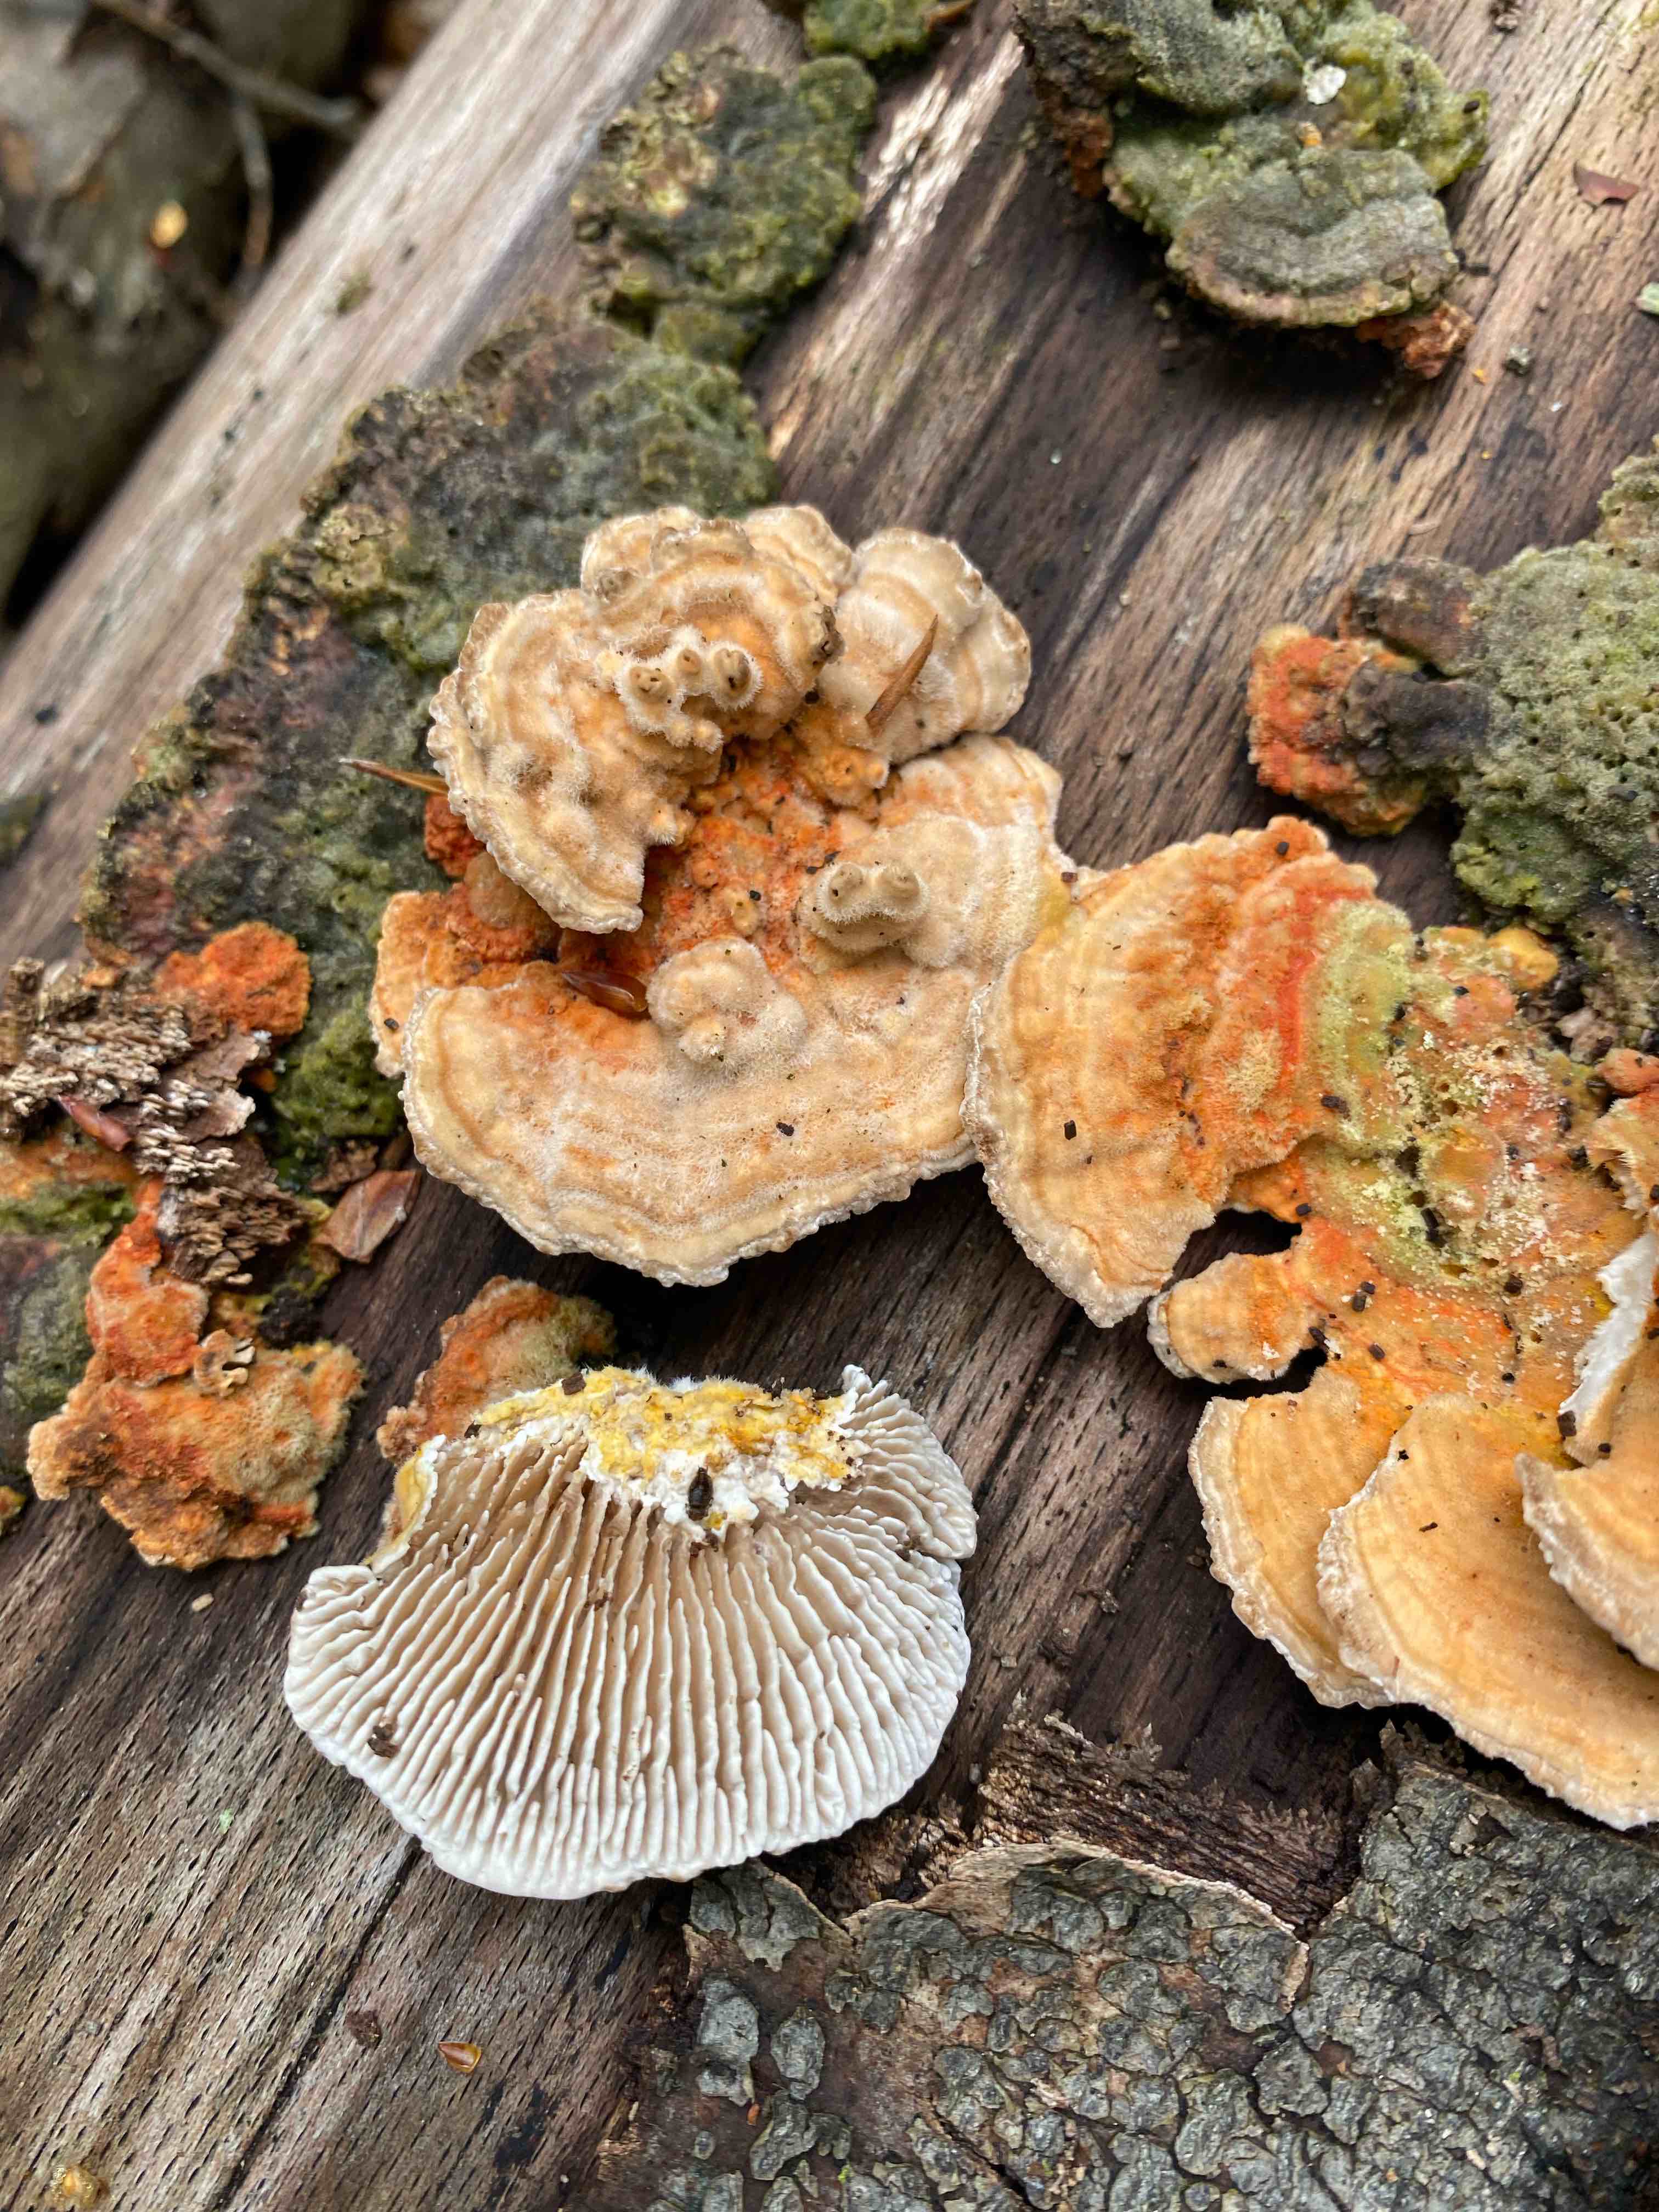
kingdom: Fungi
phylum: Basidiomycota
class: Agaricomycetes
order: Polyporales
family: Polyporaceae
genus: Lenzites
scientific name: Lenzites betulinus
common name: birke-læderporesvamp
